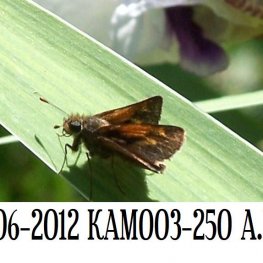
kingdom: Animalia
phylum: Arthropoda
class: Insecta
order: Lepidoptera
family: Hesperiidae
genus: Polites
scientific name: Polites themistocles
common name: Tawny-edged Skipper
